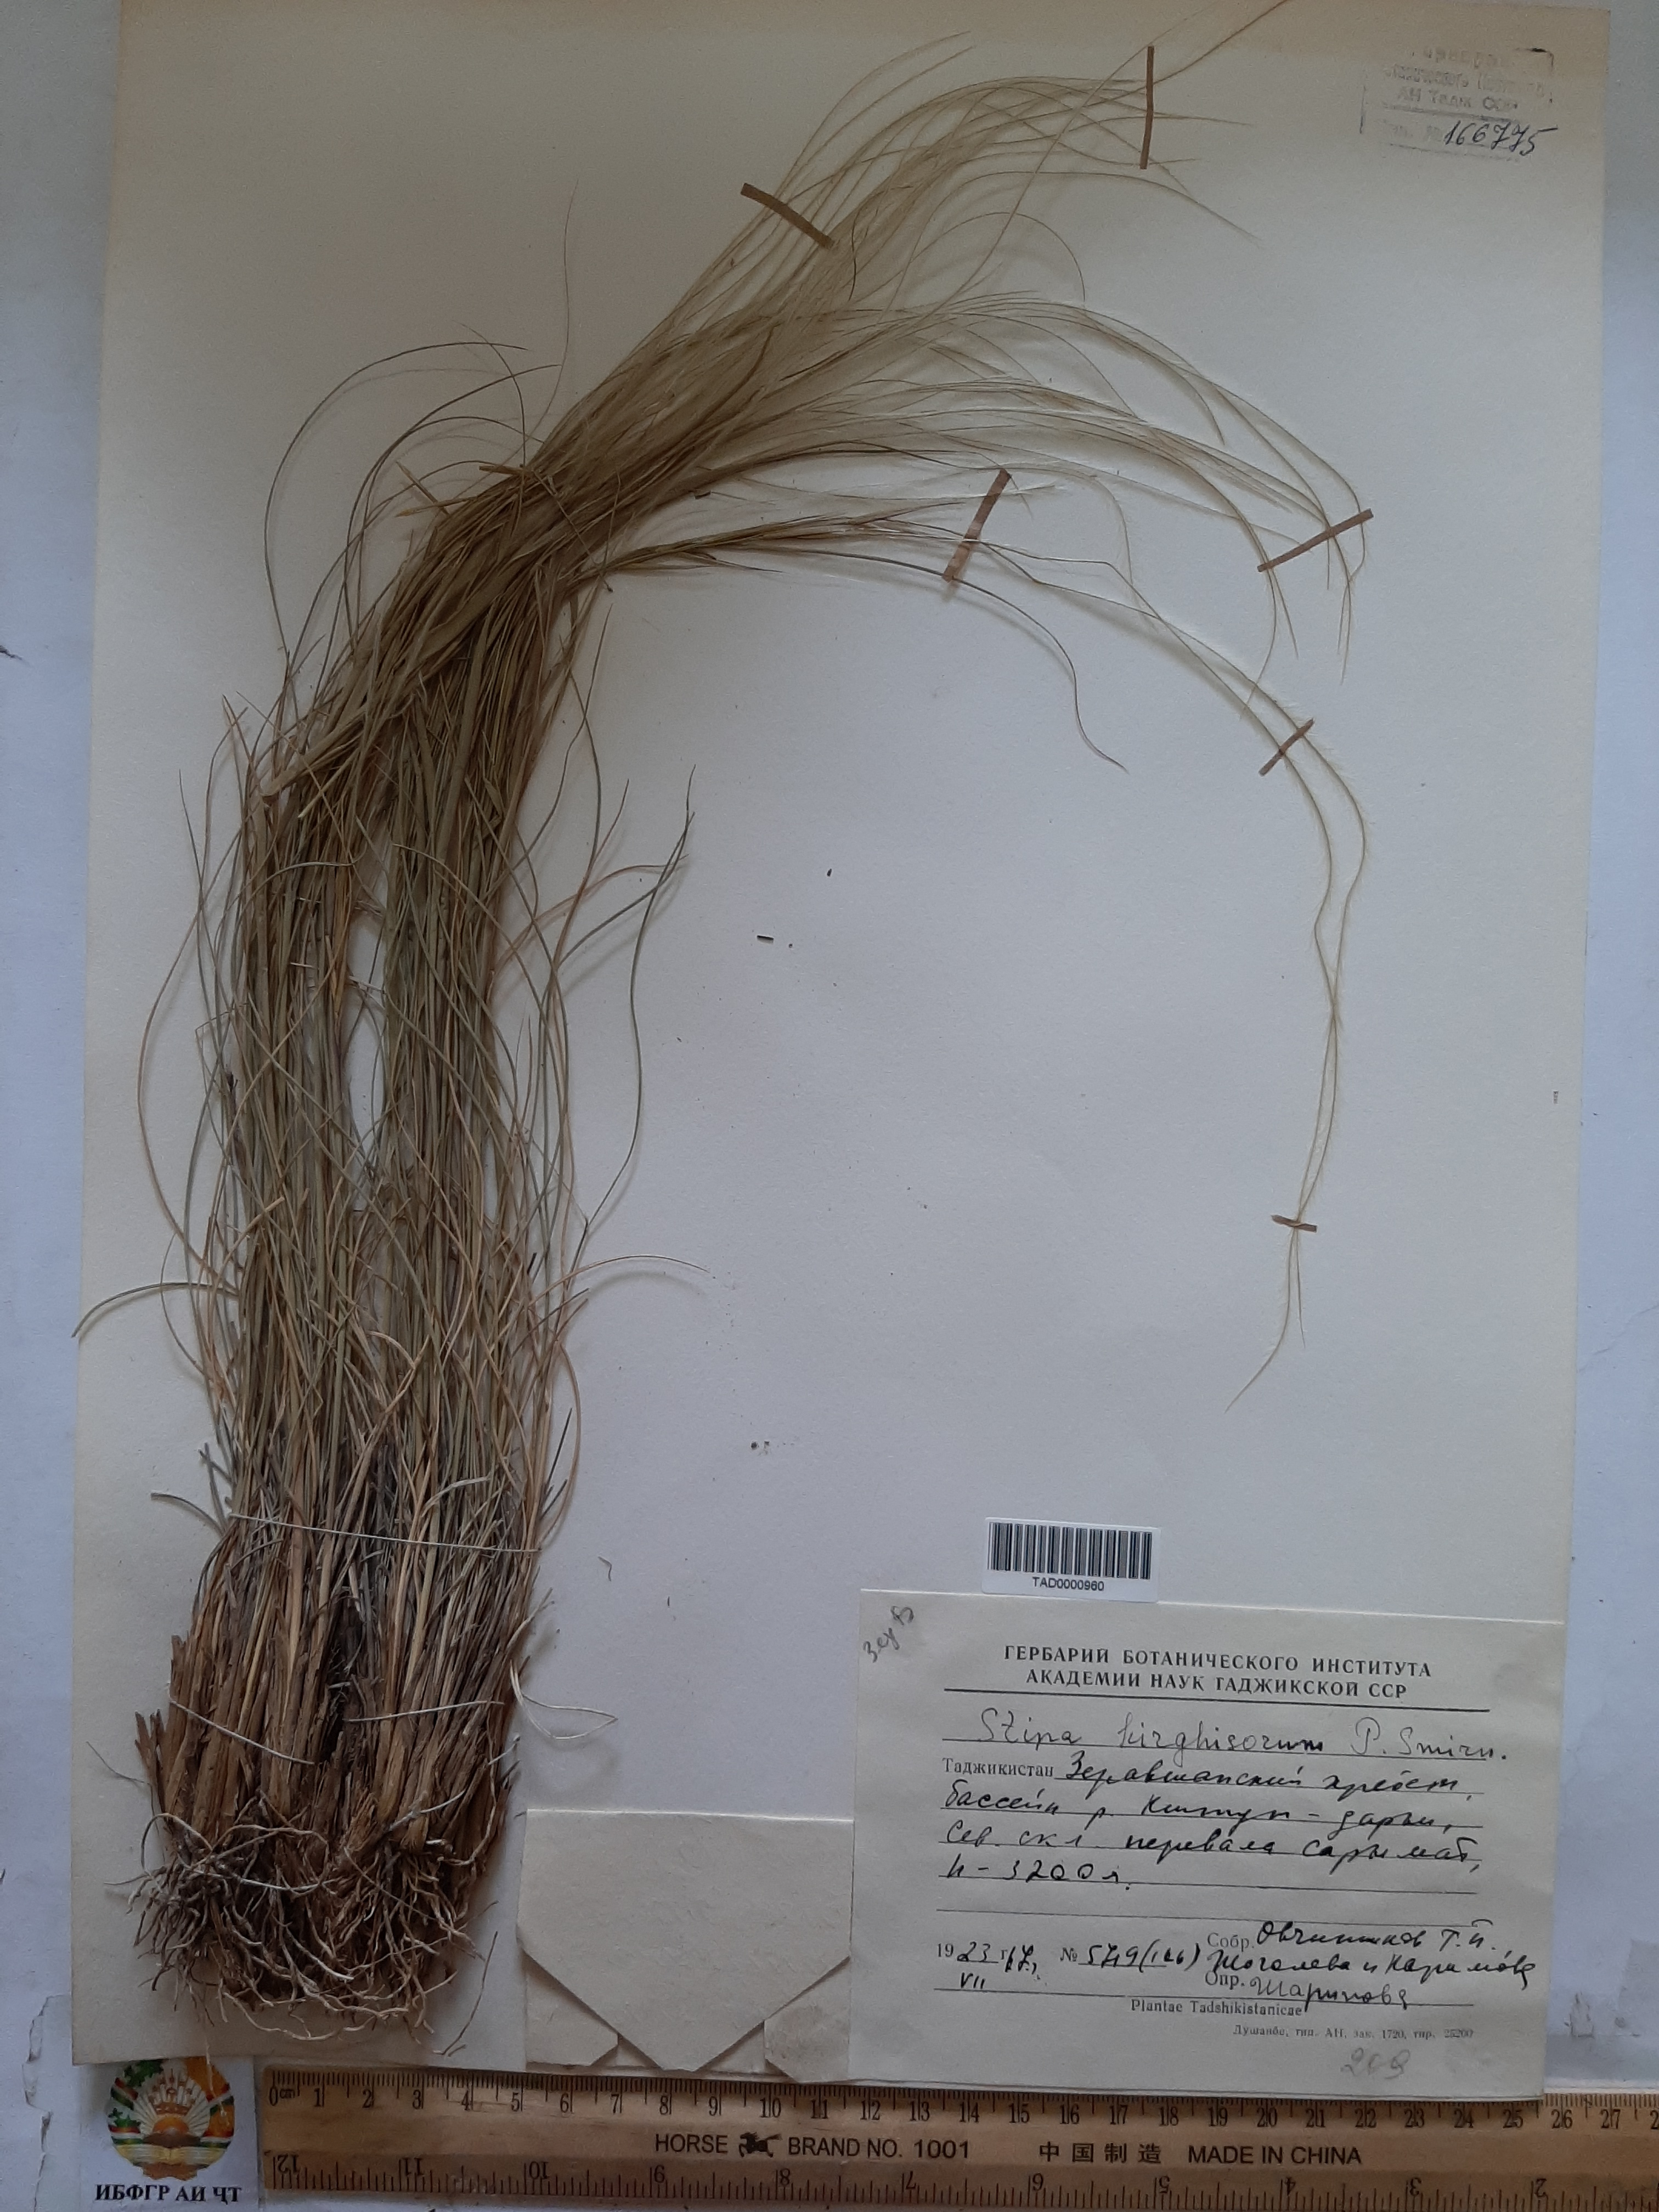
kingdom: Plantae
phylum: Tracheophyta
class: Liliopsida
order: Poales
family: Poaceae
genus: Stipa
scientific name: Stipa kirghisorum
